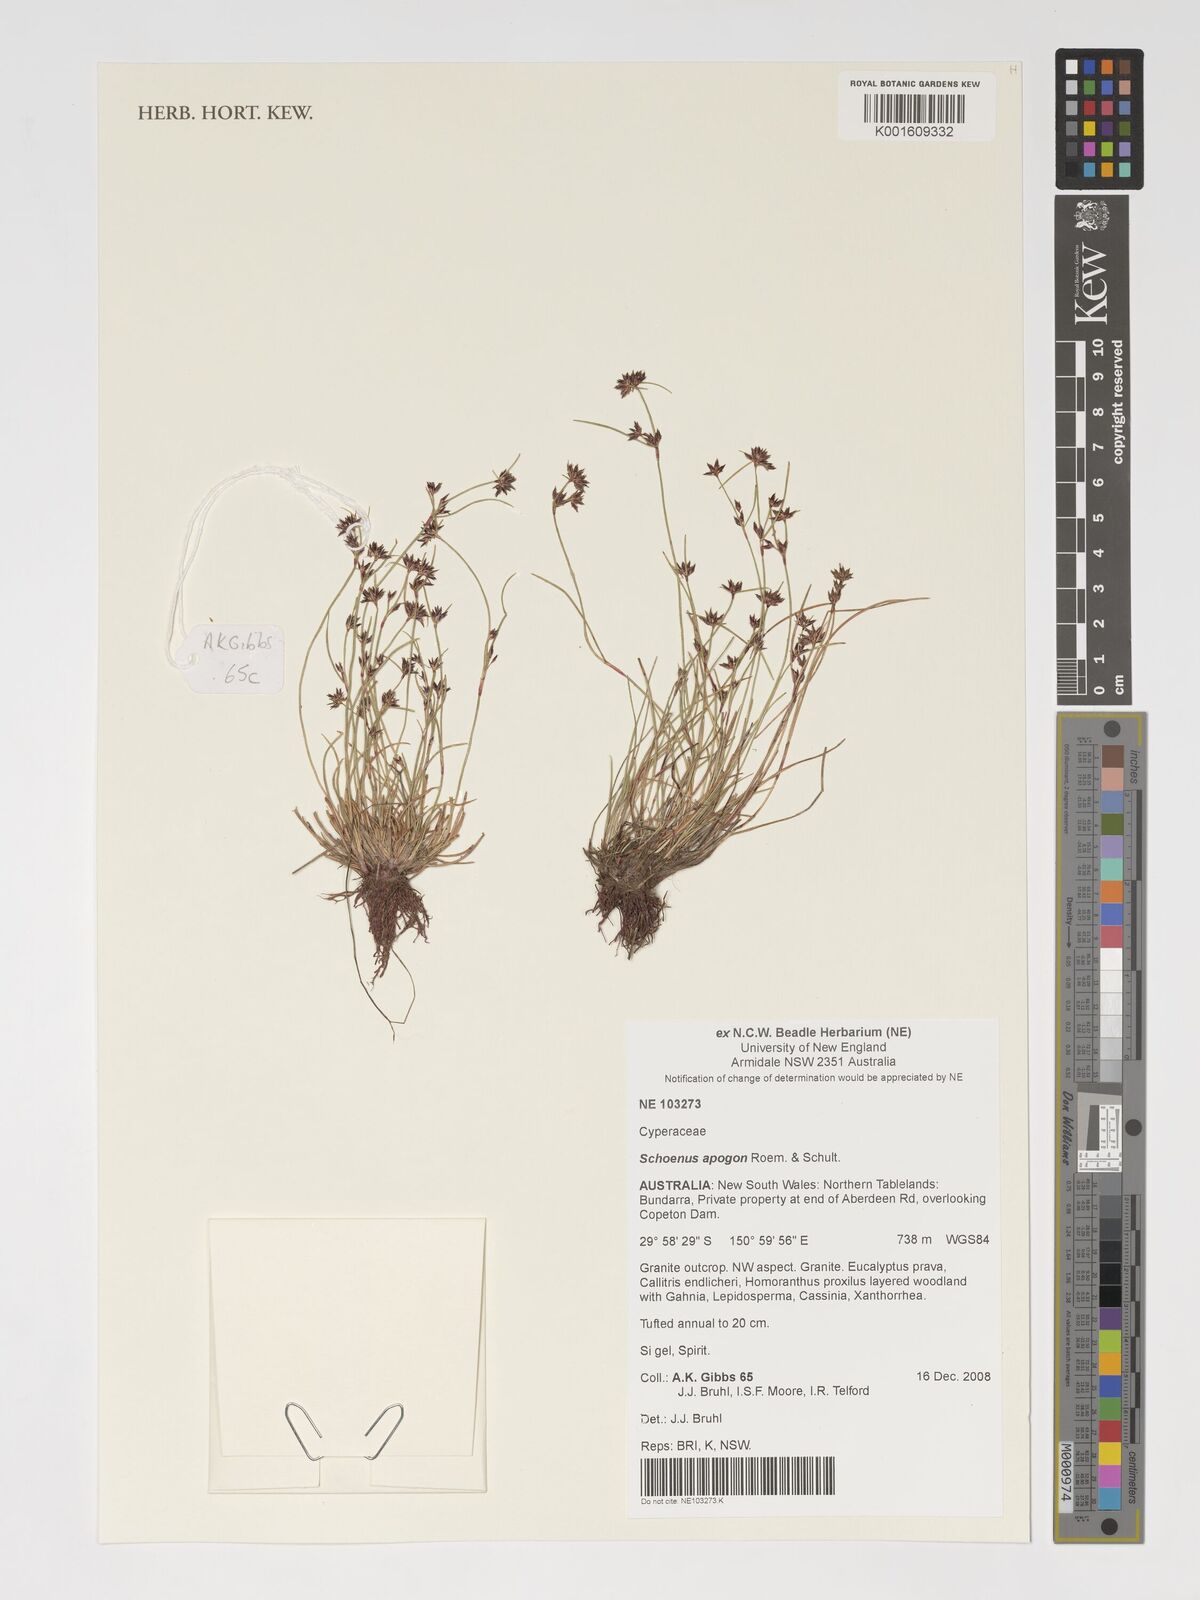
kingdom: Plantae
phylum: Tracheophyta
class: Liliopsida
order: Poales
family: Cyperaceae
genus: Schoenus
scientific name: Schoenus apogon
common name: Smooth bogrush
